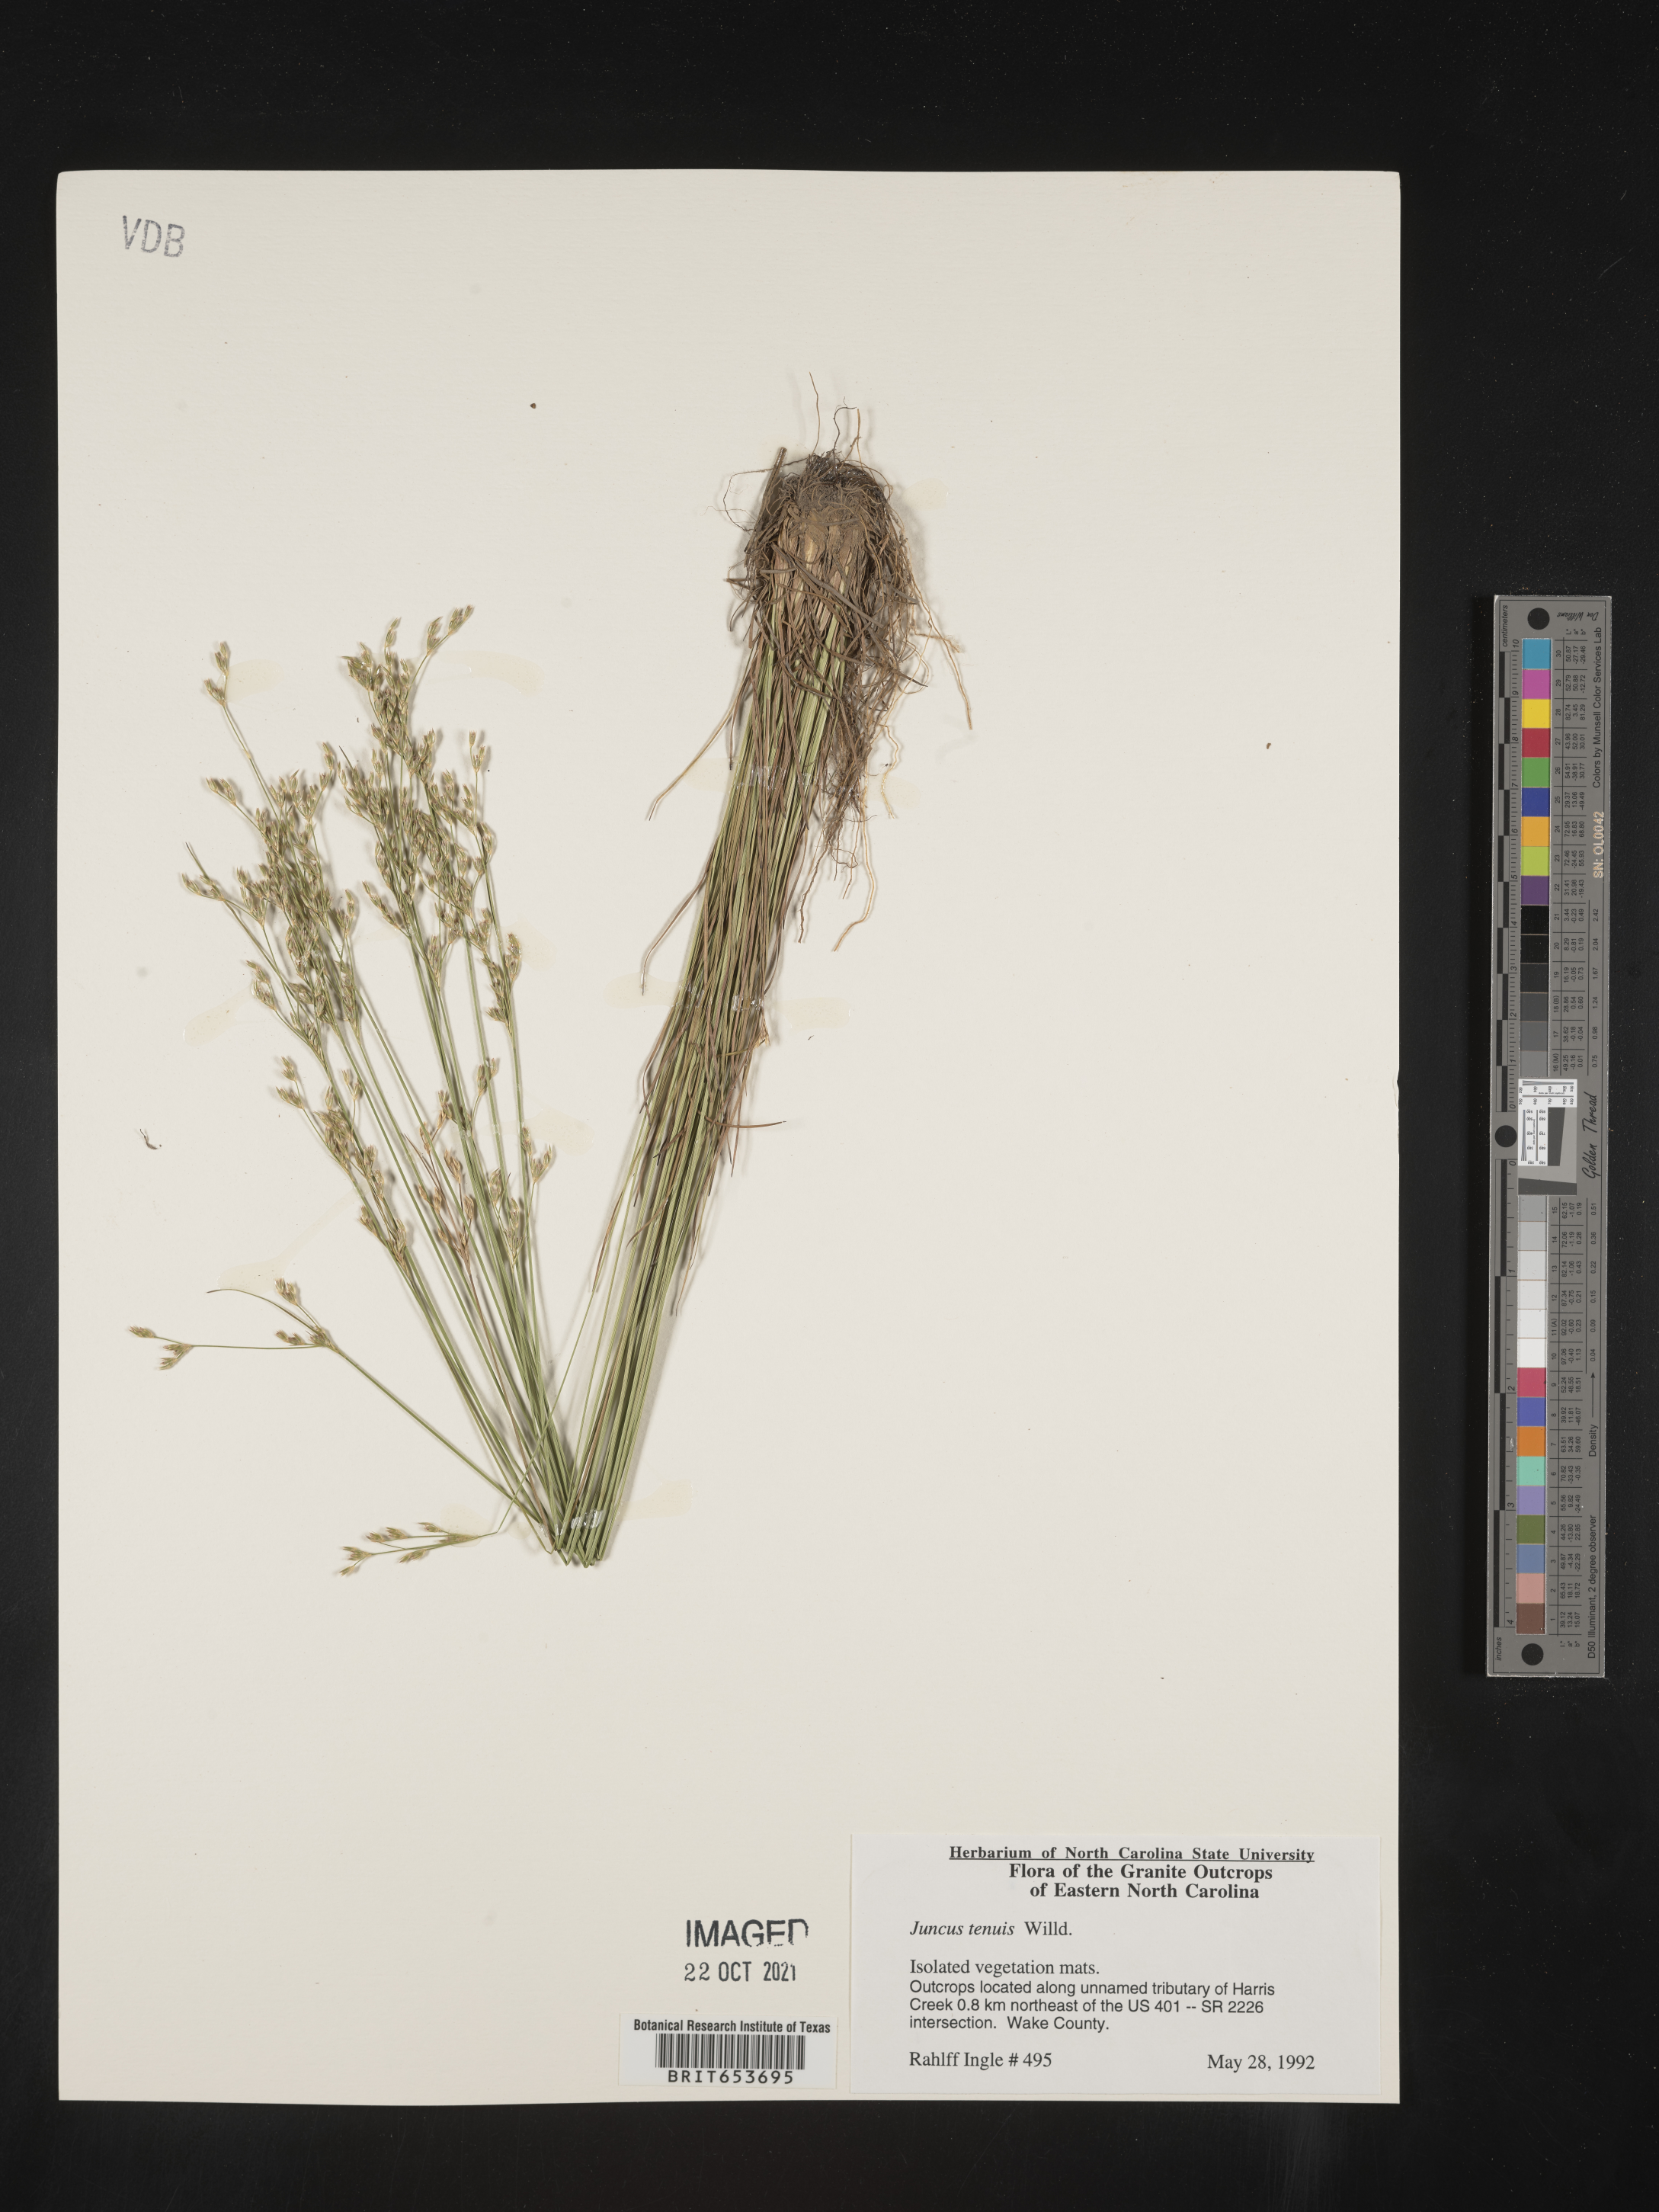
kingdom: Plantae
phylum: Tracheophyta
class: Liliopsida
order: Poales
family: Juncaceae
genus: Juncus
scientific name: Juncus tenuis
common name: Slender rush
